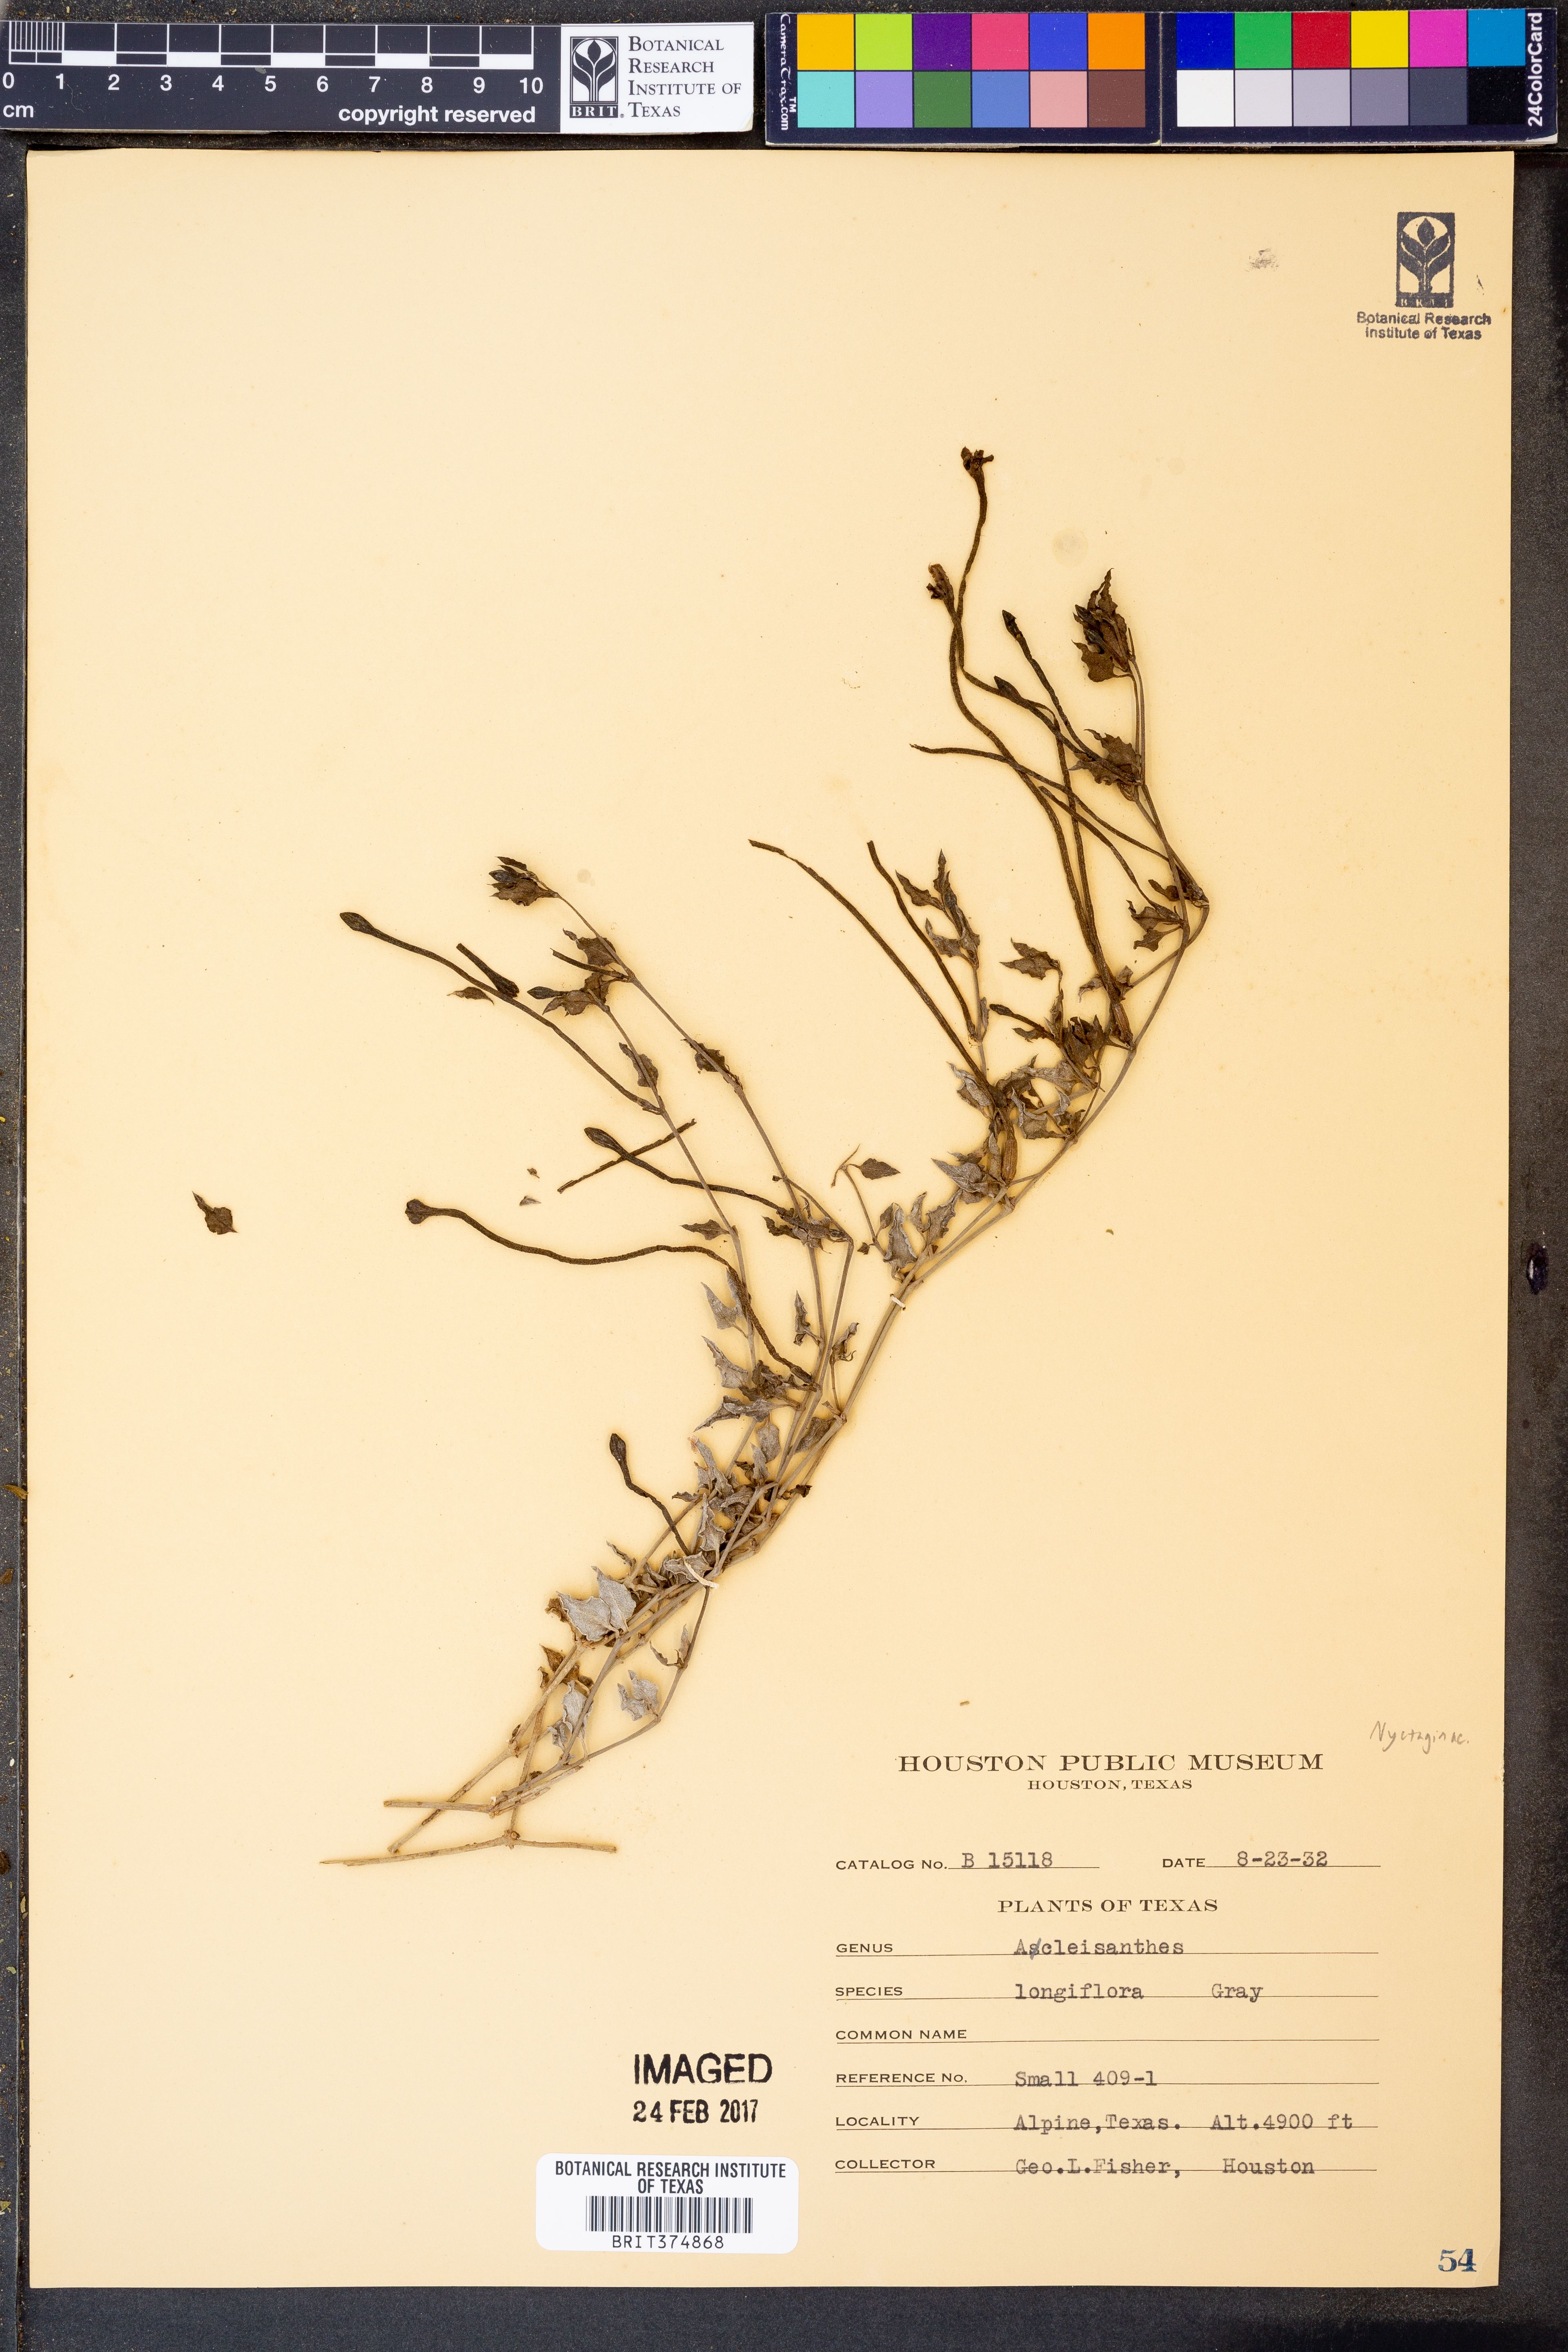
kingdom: Plantae
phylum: Tracheophyta
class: Magnoliopsida
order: Caryophyllales
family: Nyctaginaceae
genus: Acleisanthes
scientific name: Acleisanthes longiflora
